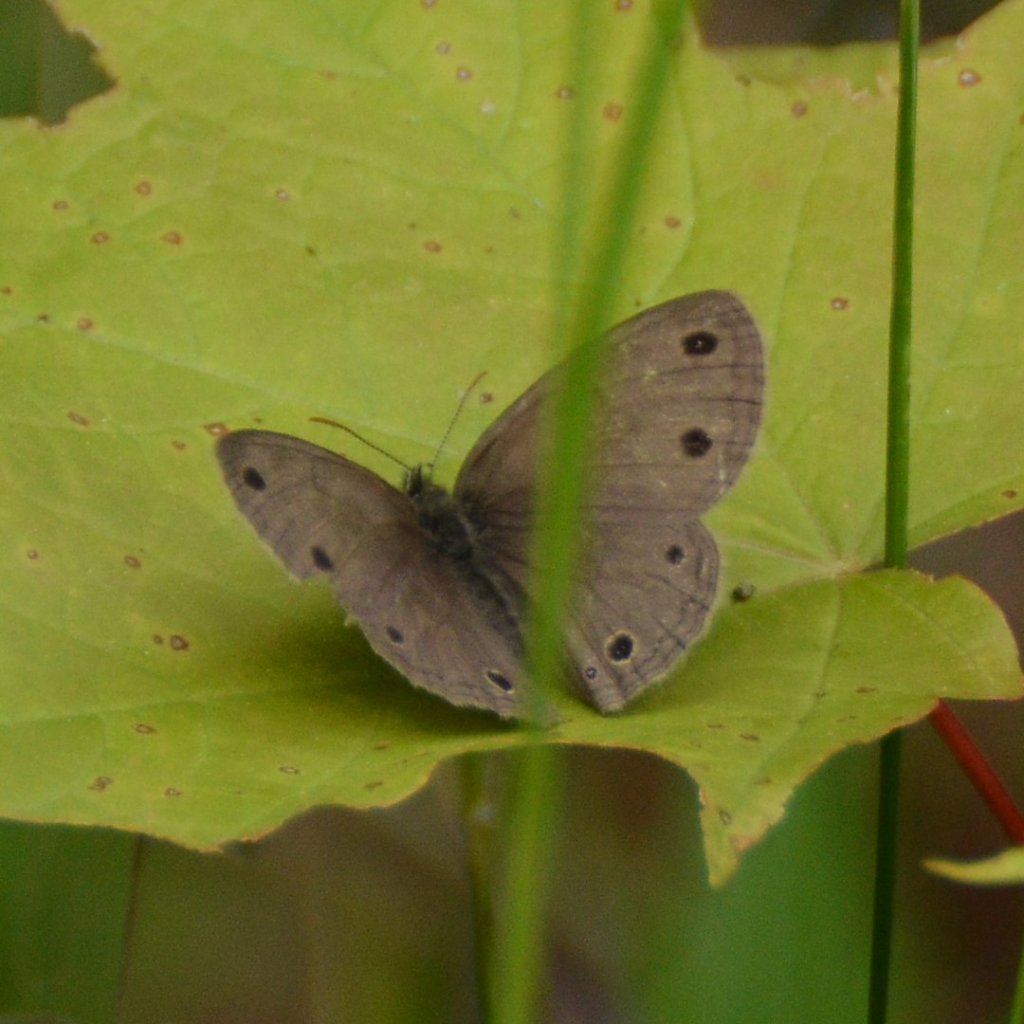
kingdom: Animalia
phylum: Arthropoda
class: Insecta
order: Lepidoptera
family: Nymphalidae
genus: Euptychia
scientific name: Euptychia cymela
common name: Little Wood Satyr
